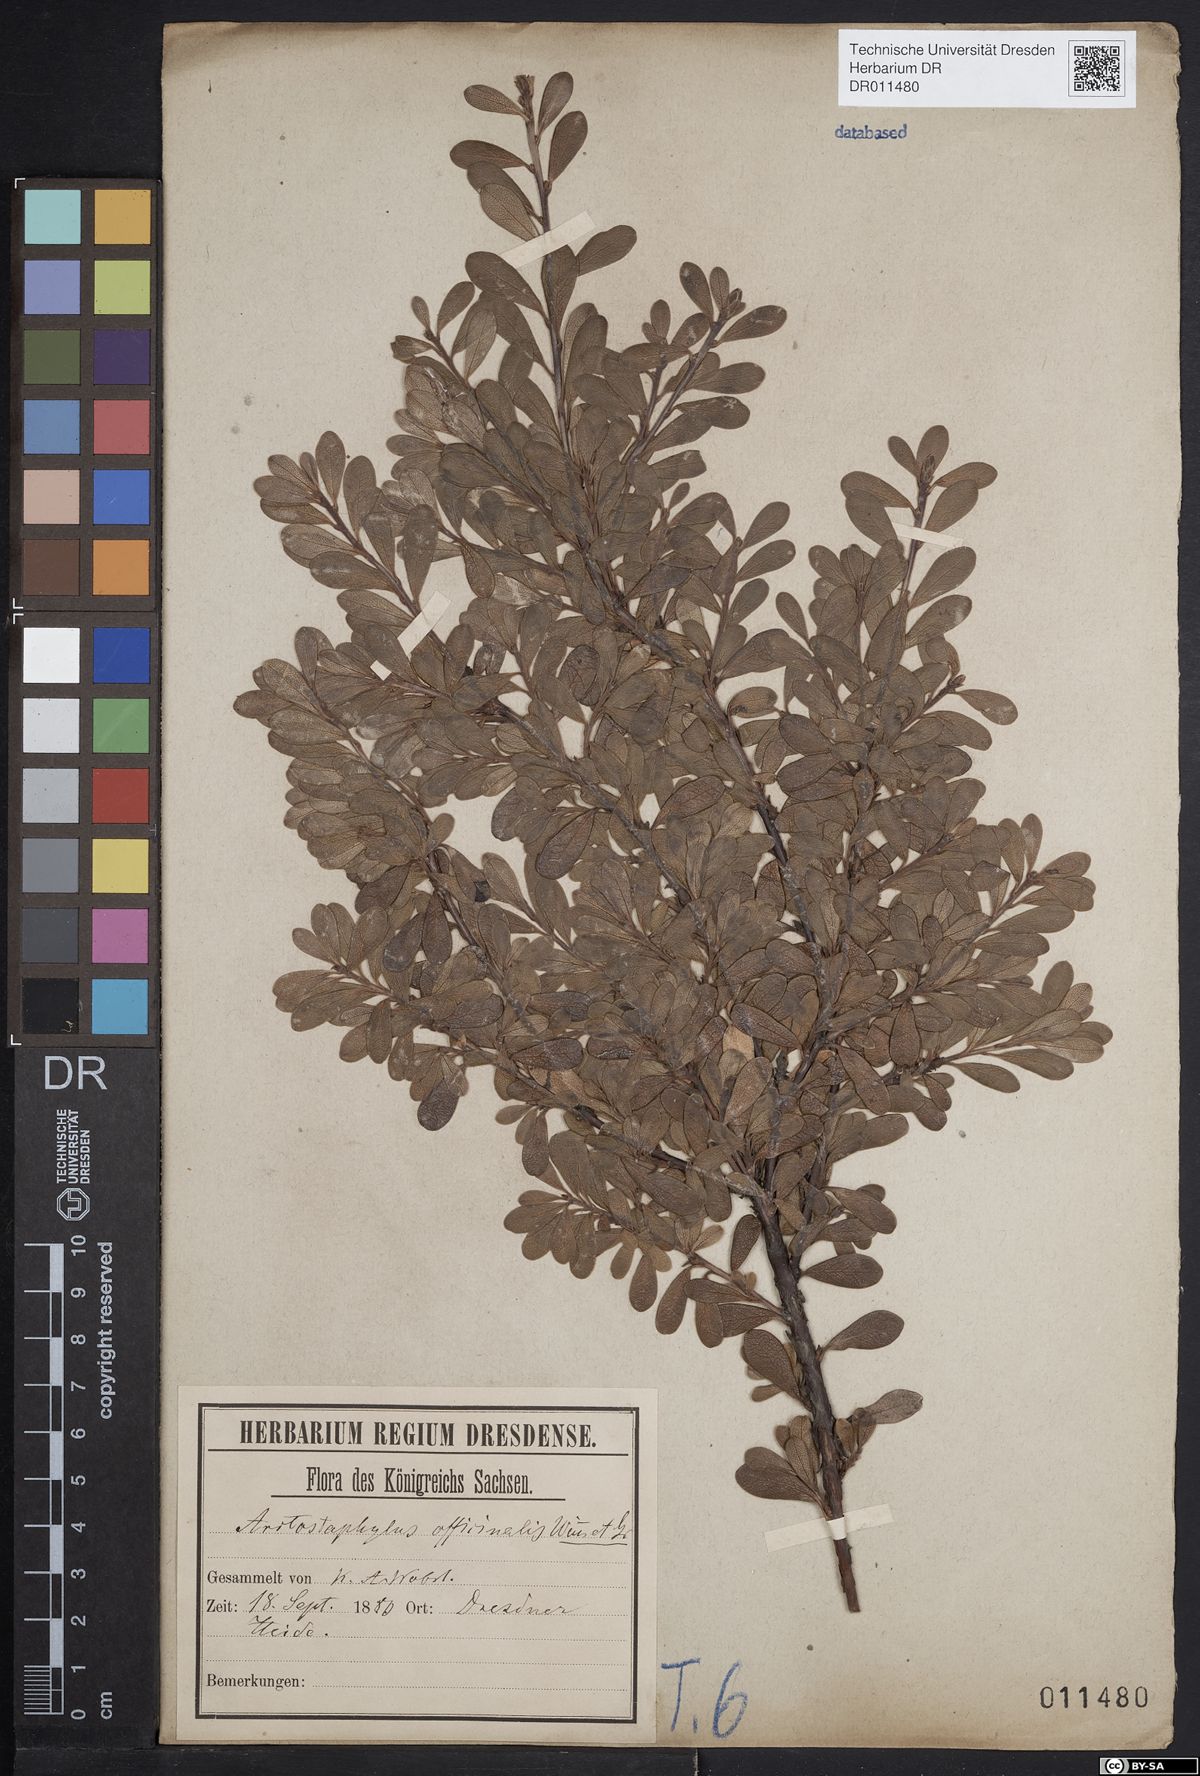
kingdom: Plantae
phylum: Tracheophyta
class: Magnoliopsida
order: Ericales
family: Ericaceae
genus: Arctostaphylos
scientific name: Arctostaphylos uva-ursi
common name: Bearberry
